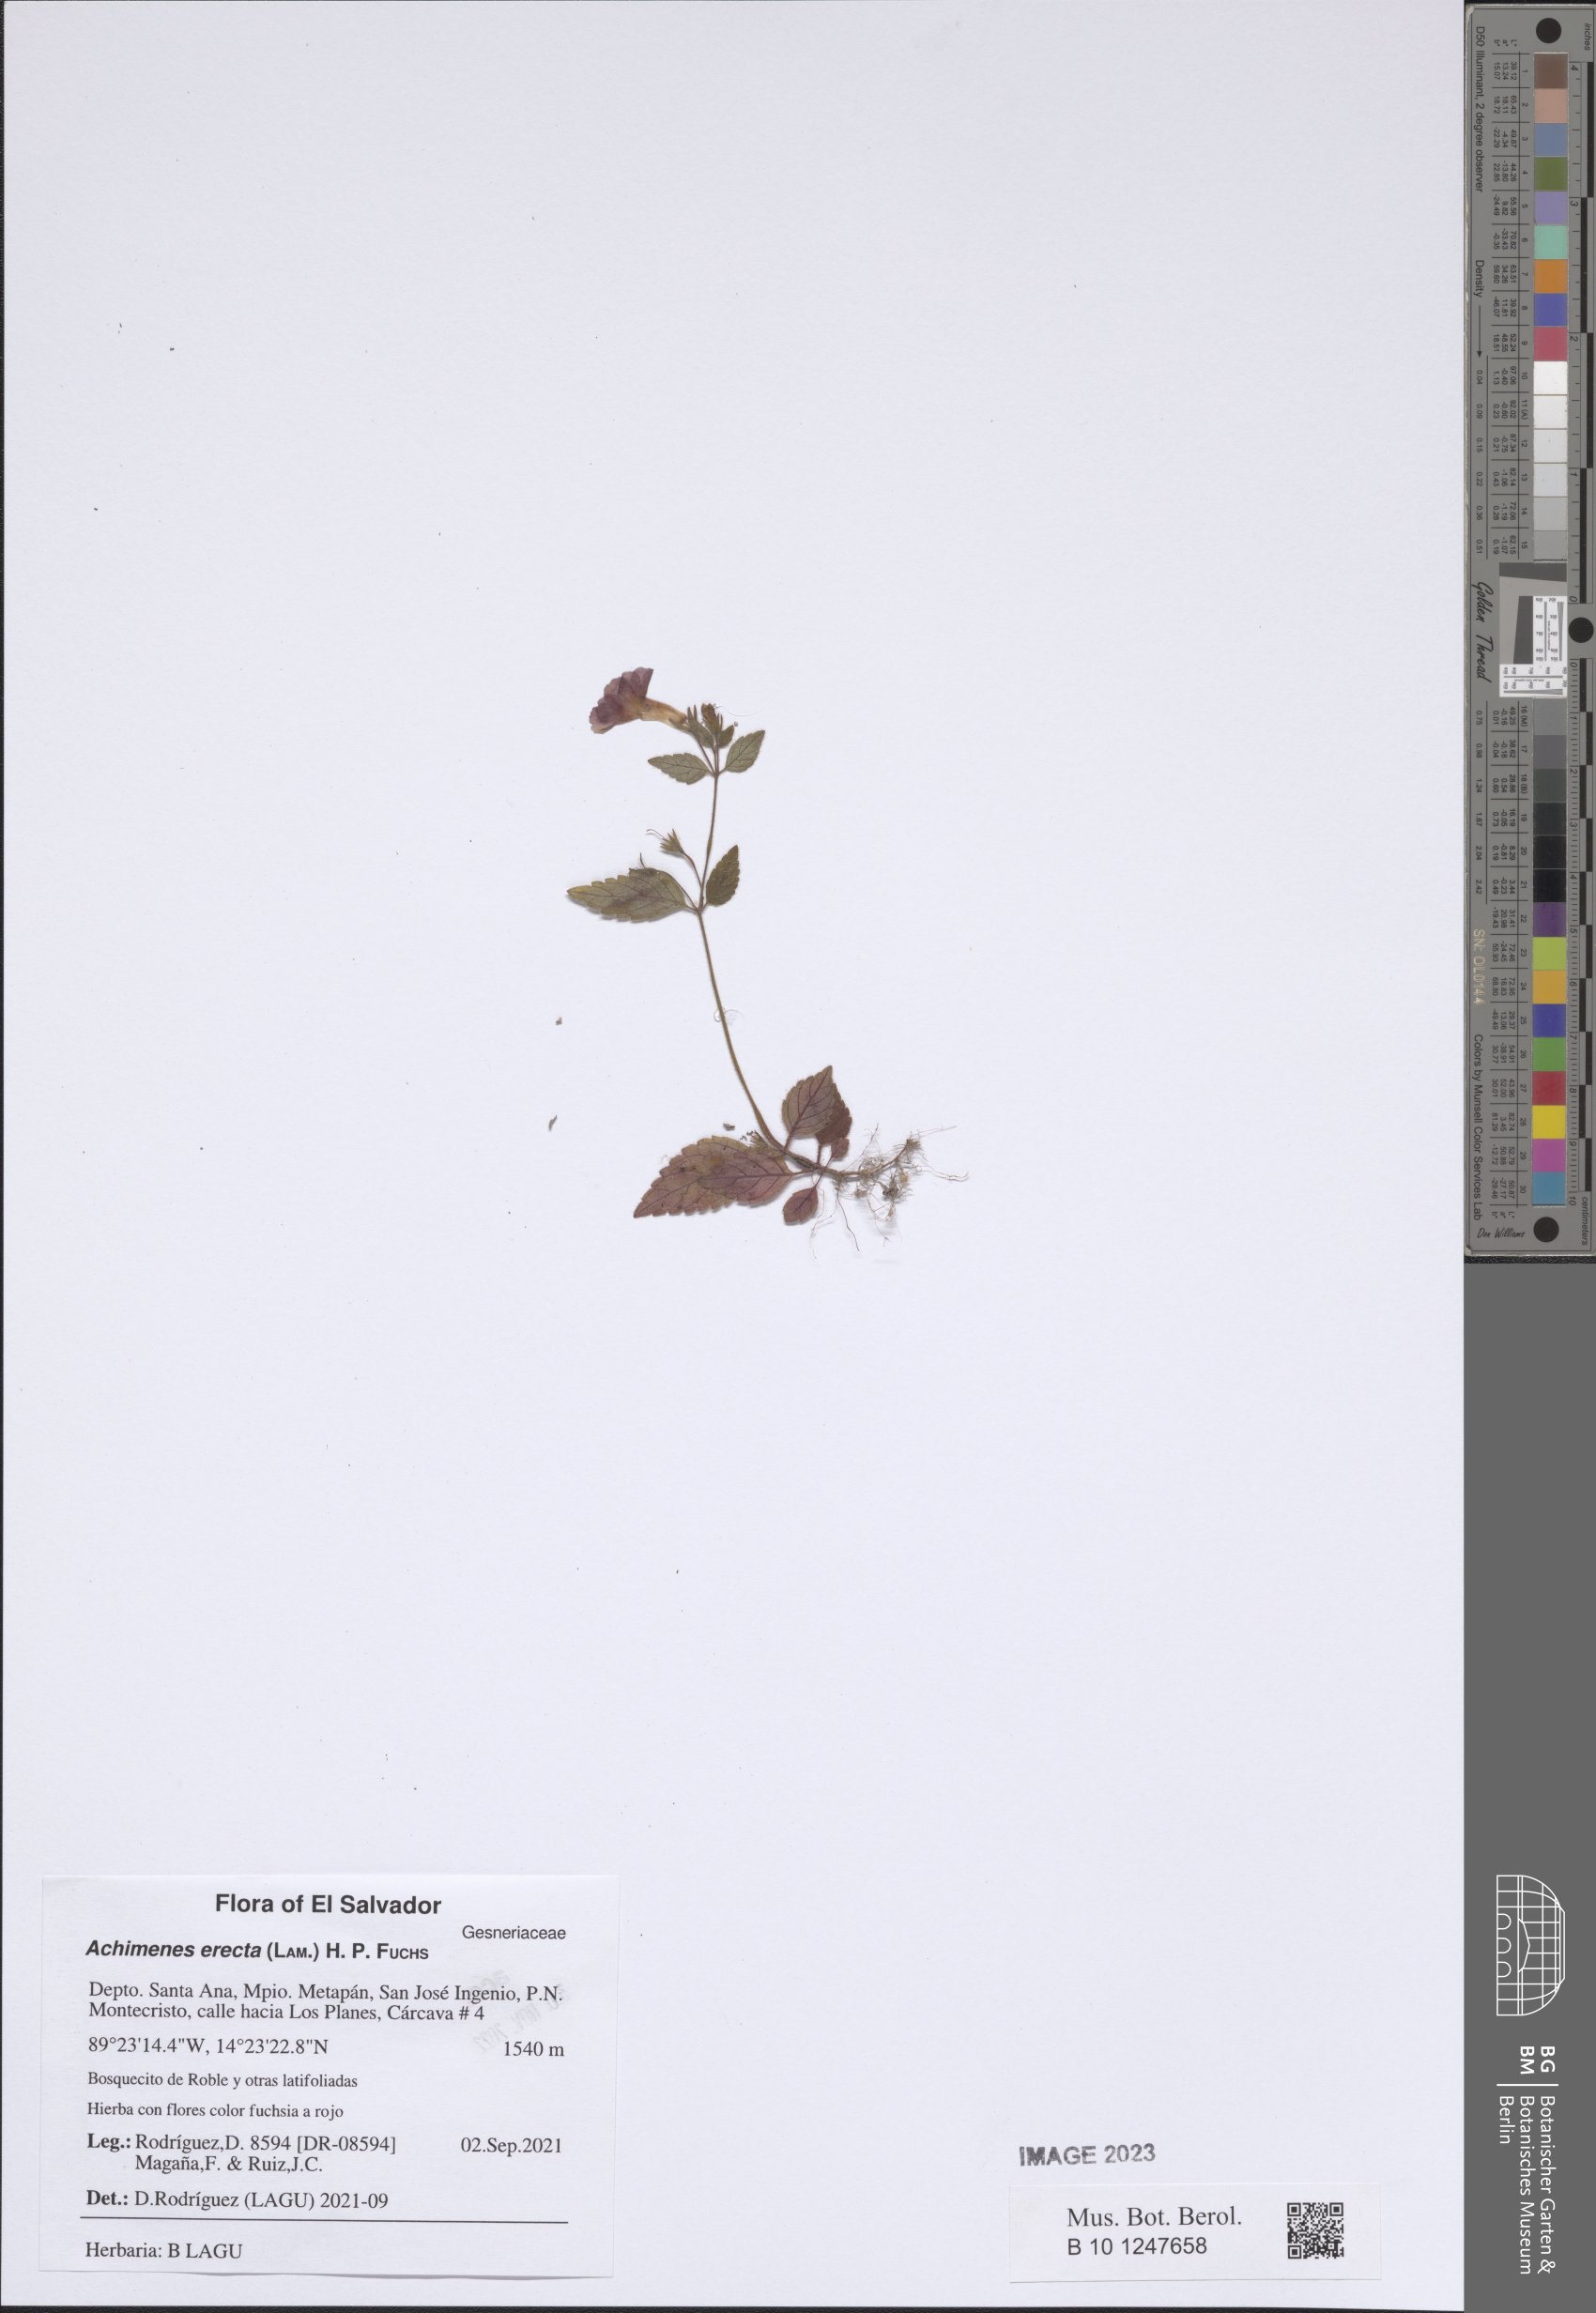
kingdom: Plantae
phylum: Tracheophyta
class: Magnoliopsida
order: Lamiales
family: Gesneriaceae
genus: Achimenes
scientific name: Achimenes erecta
